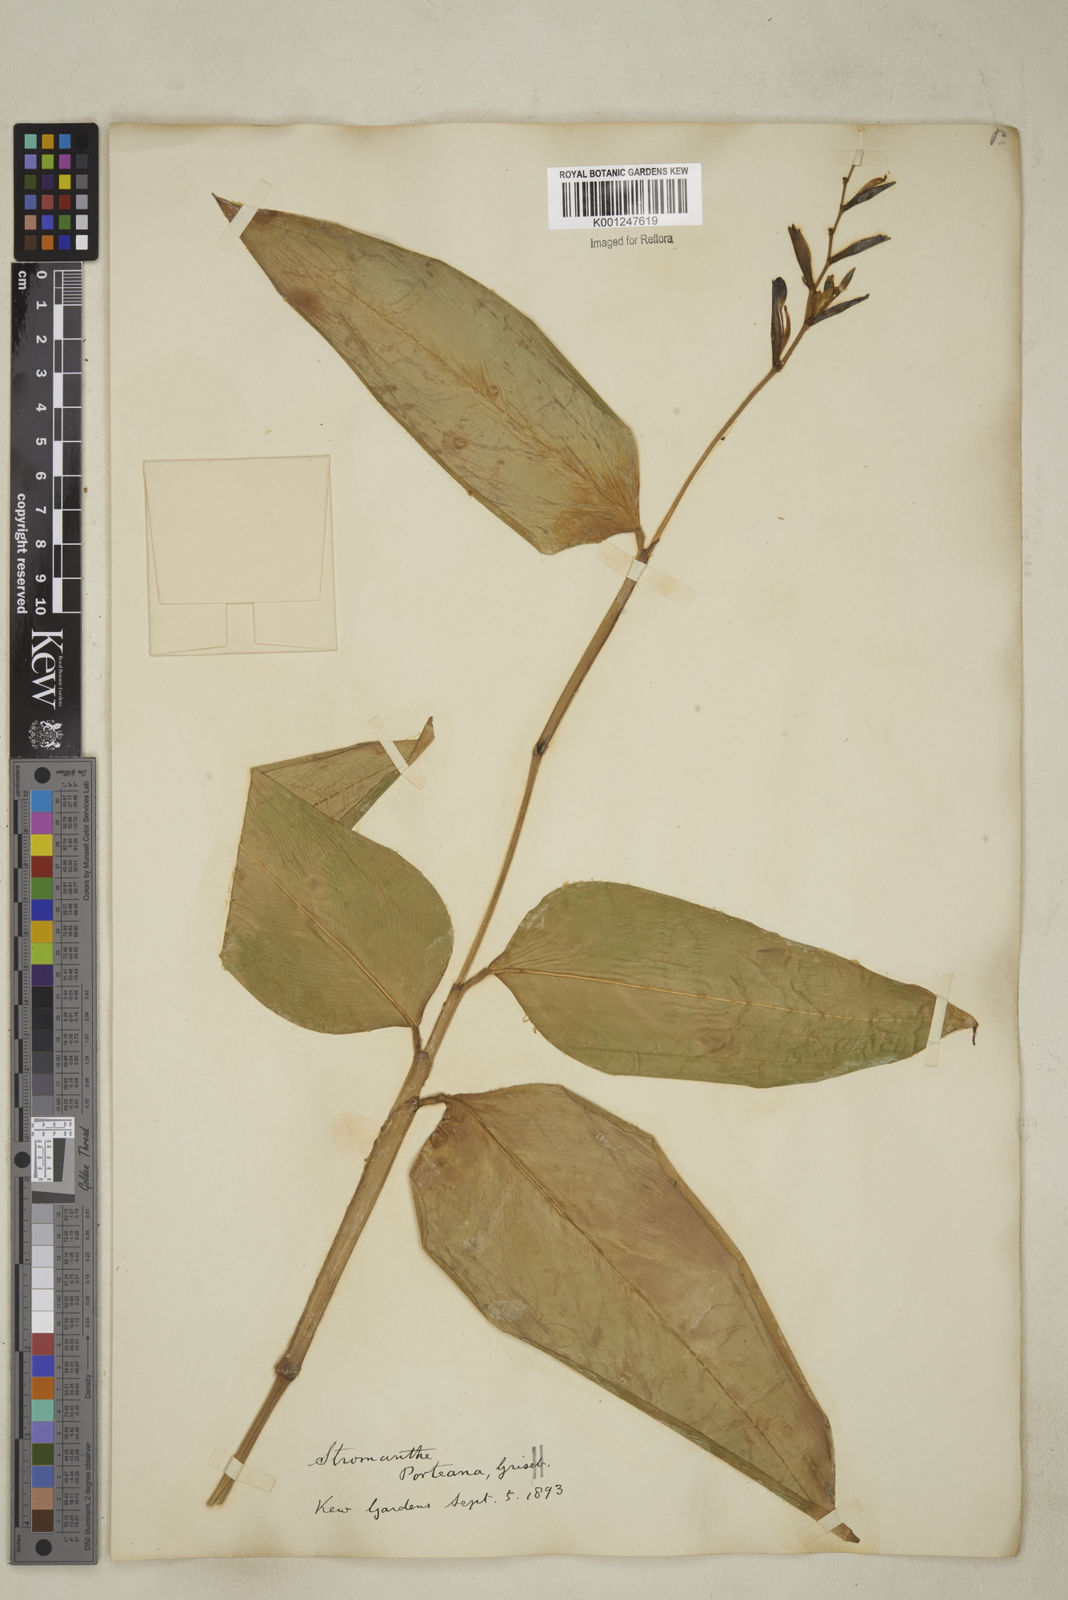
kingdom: Plantae
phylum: Tracheophyta
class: Liliopsida
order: Zingiberales
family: Marantaceae
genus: Stromanthe
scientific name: Stromanthe porteana
